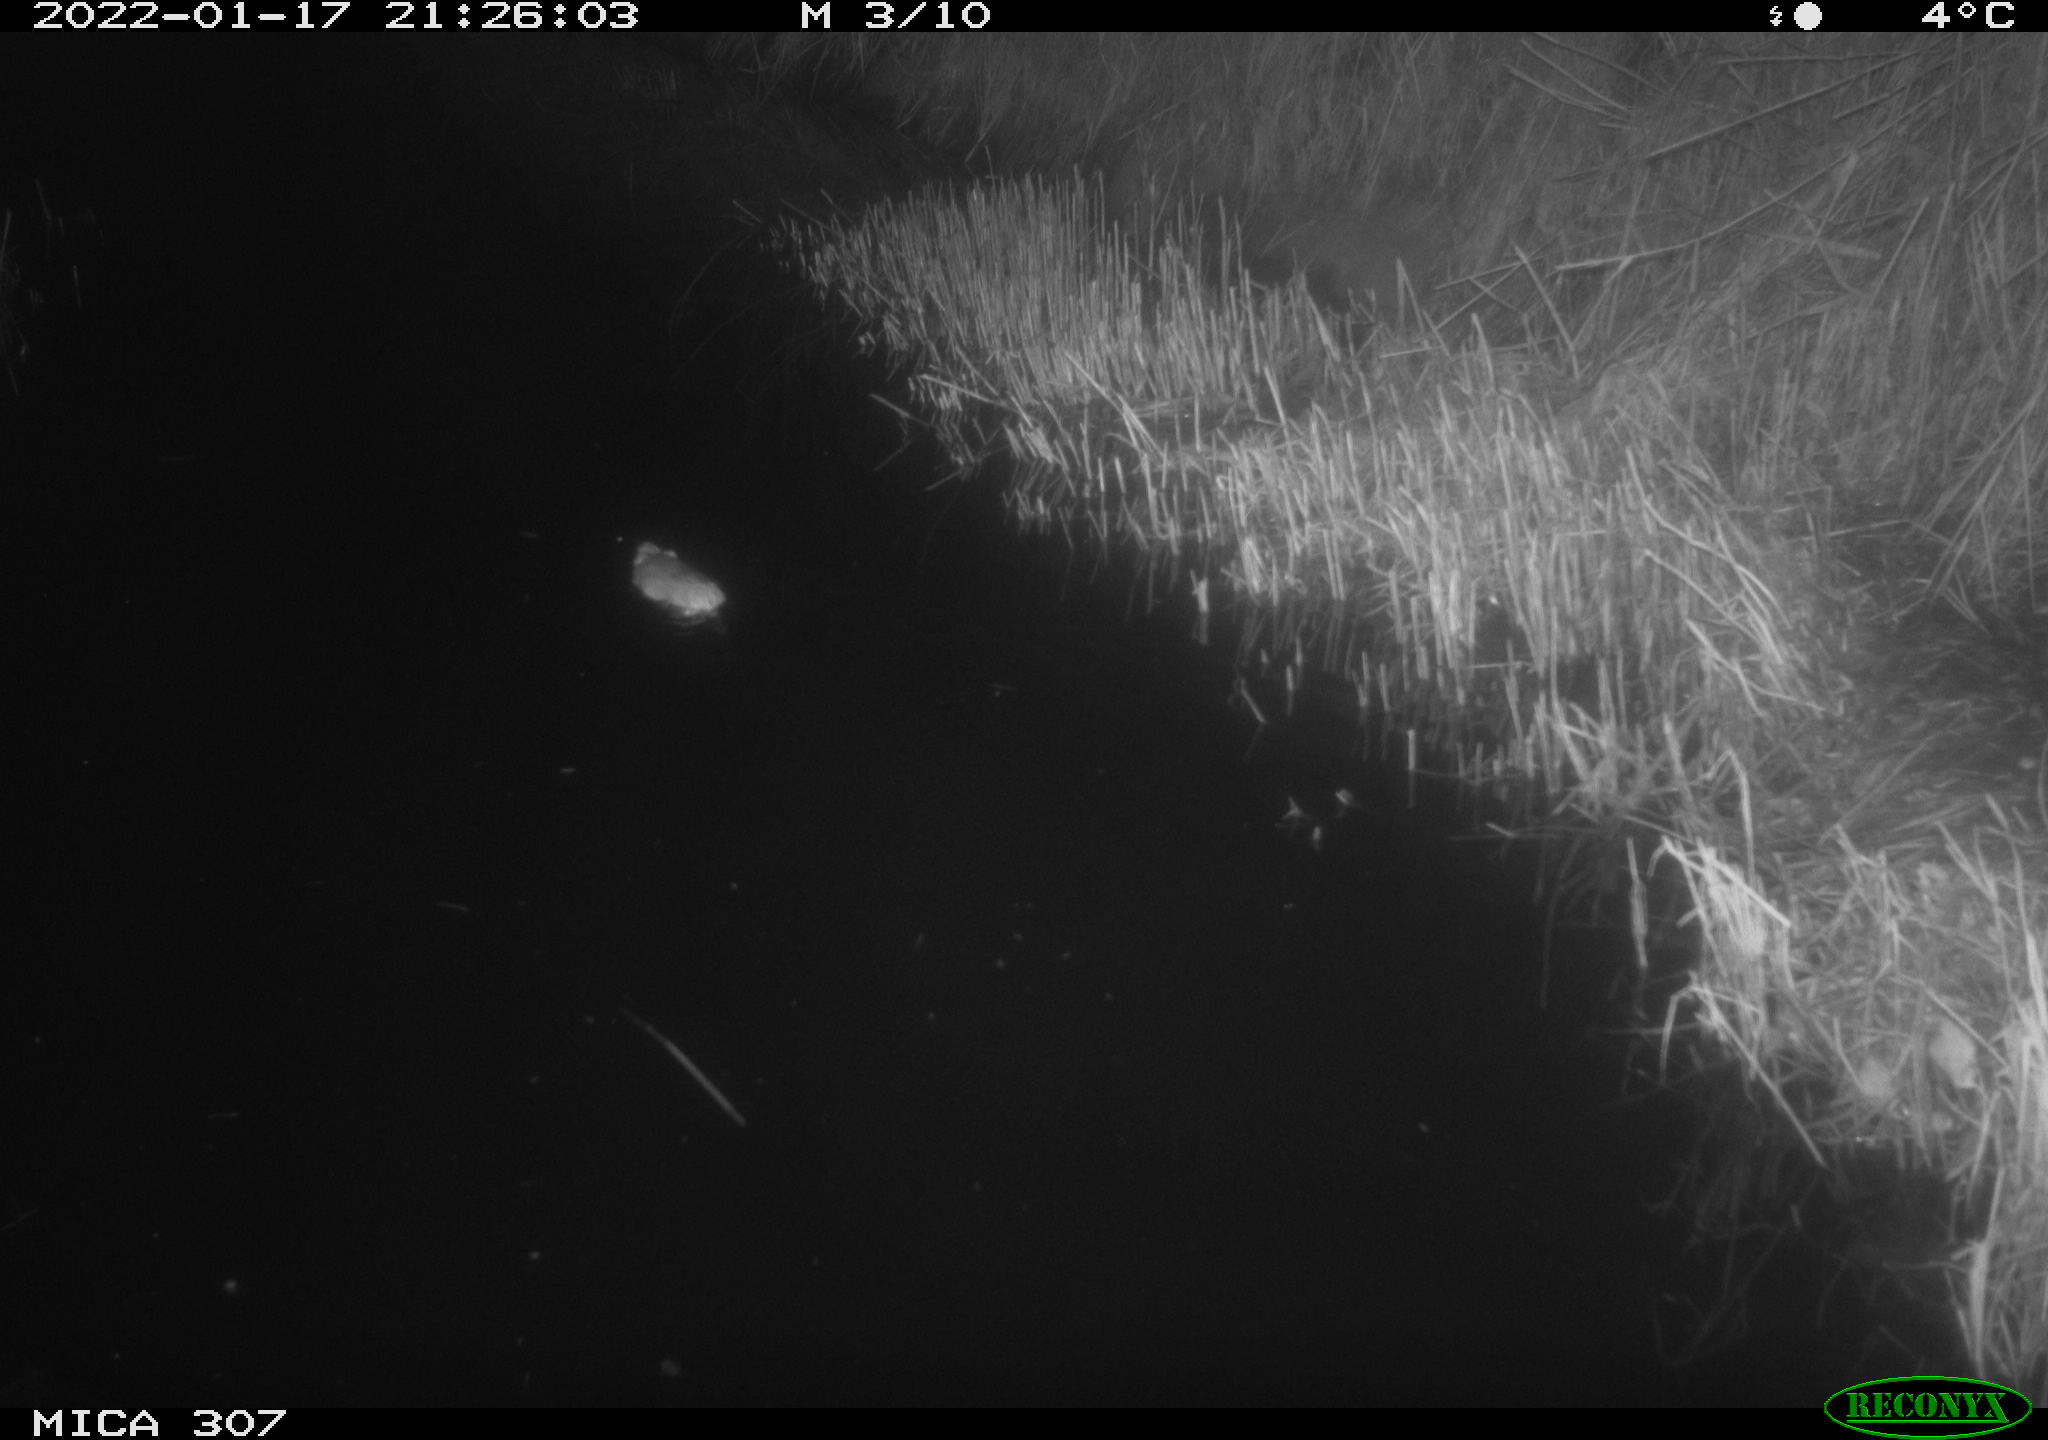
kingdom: Animalia
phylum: Chordata
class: Mammalia
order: Rodentia
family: Muridae
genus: Rattus
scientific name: Rattus norvegicus
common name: Brown rat
